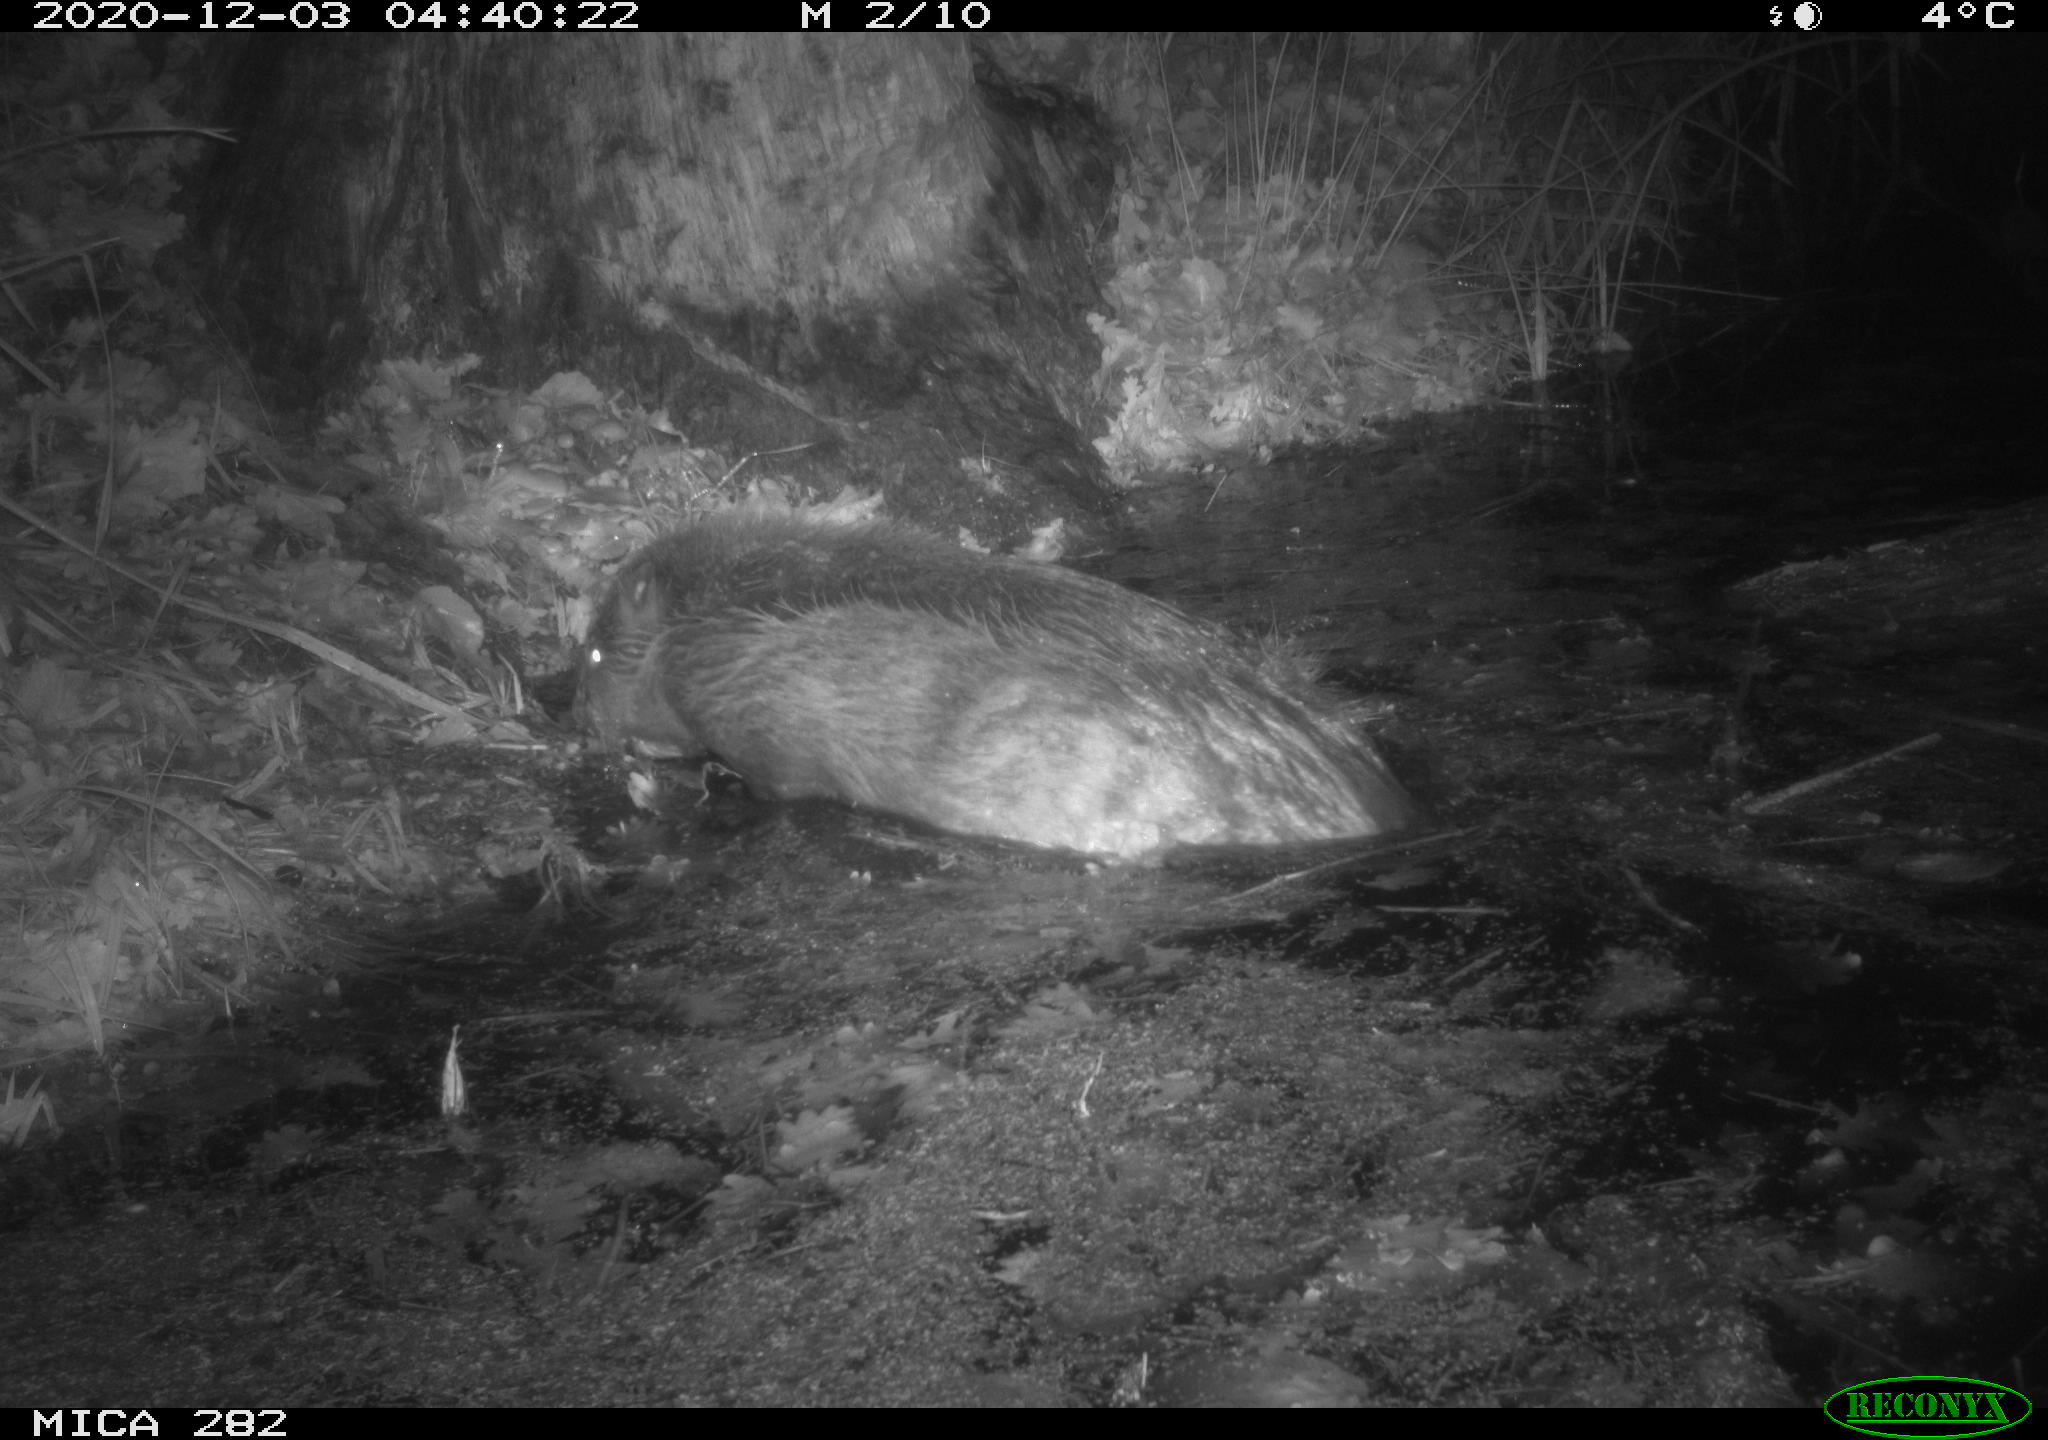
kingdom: Animalia
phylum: Chordata
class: Mammalia
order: Rodentia
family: Castoridae
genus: Castor
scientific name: Castor fiber
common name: Eurasian beaver
